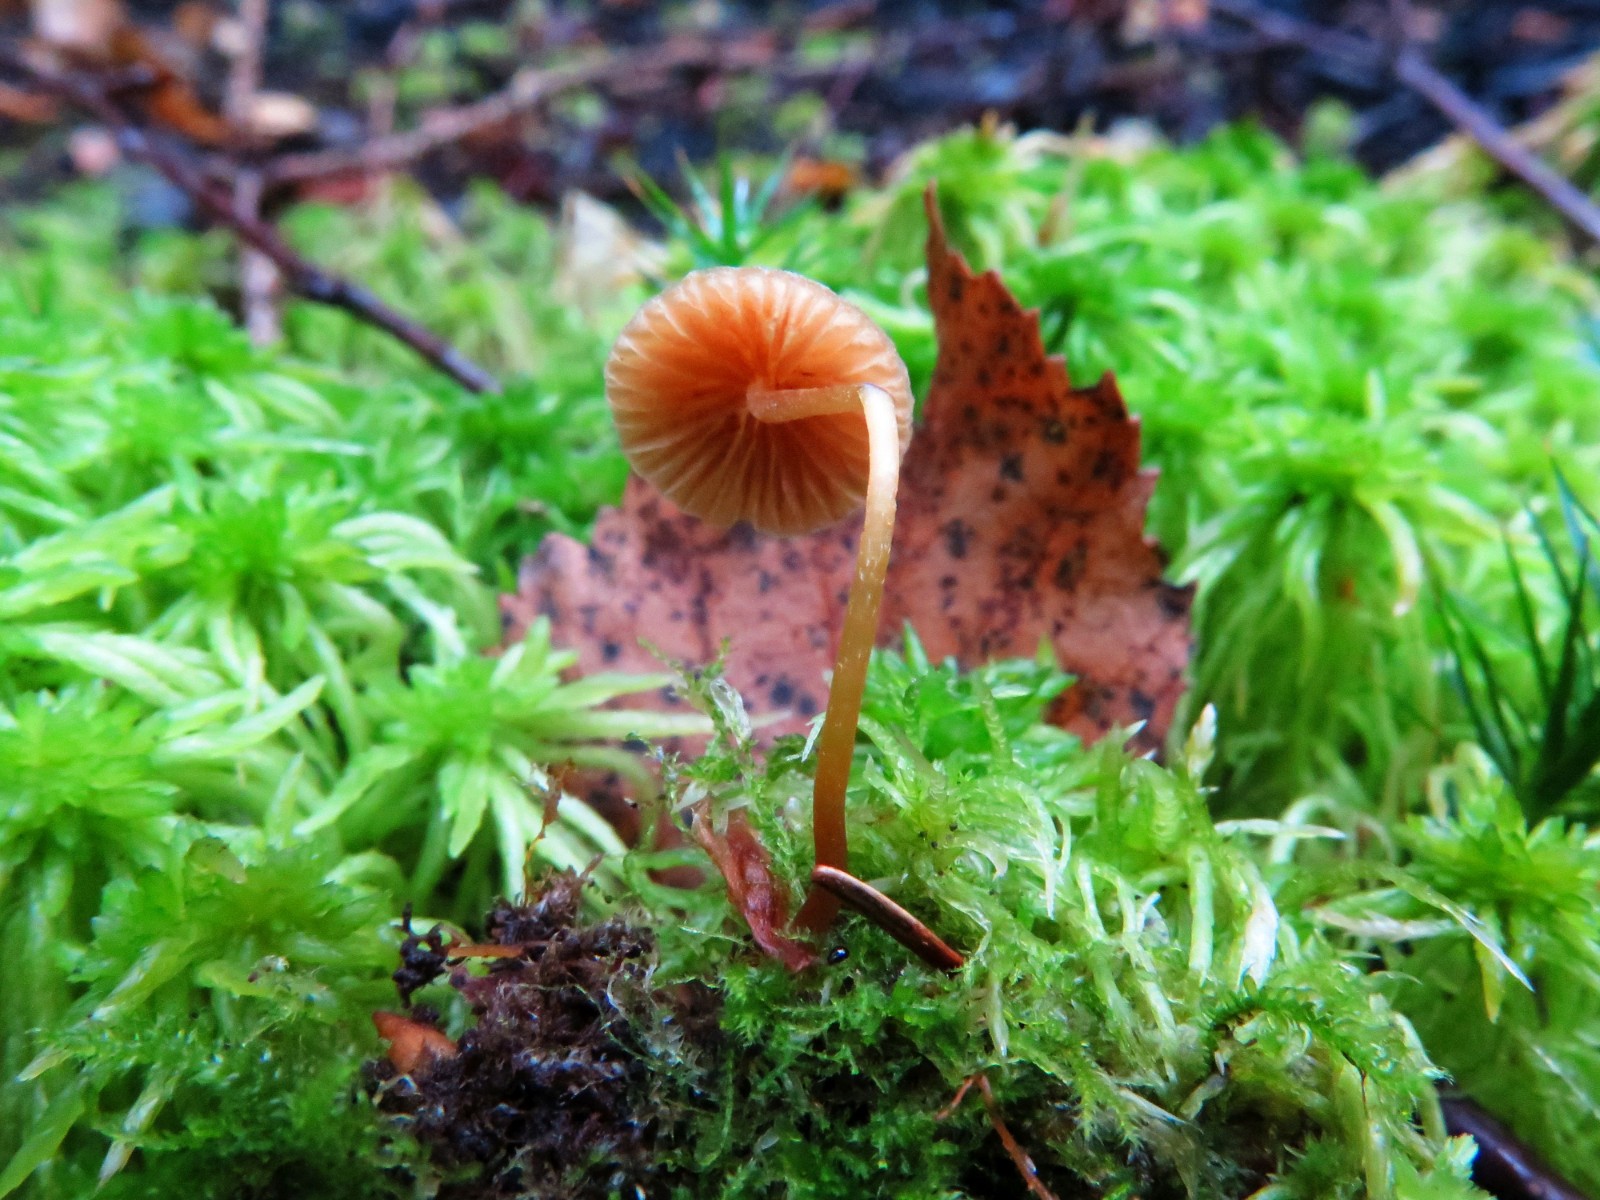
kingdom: Fungi
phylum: Basidiomycota
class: Agaricomycetes
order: Agaricales
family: Hymenogastraceae
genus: Galerina
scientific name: Galerina vittiformis
